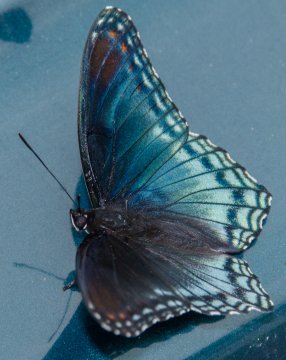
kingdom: Animalia
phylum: Arthropoda
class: Insecta
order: Lepidoptera
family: Nymphalidae
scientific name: Nymphalidae
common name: White Admiral
